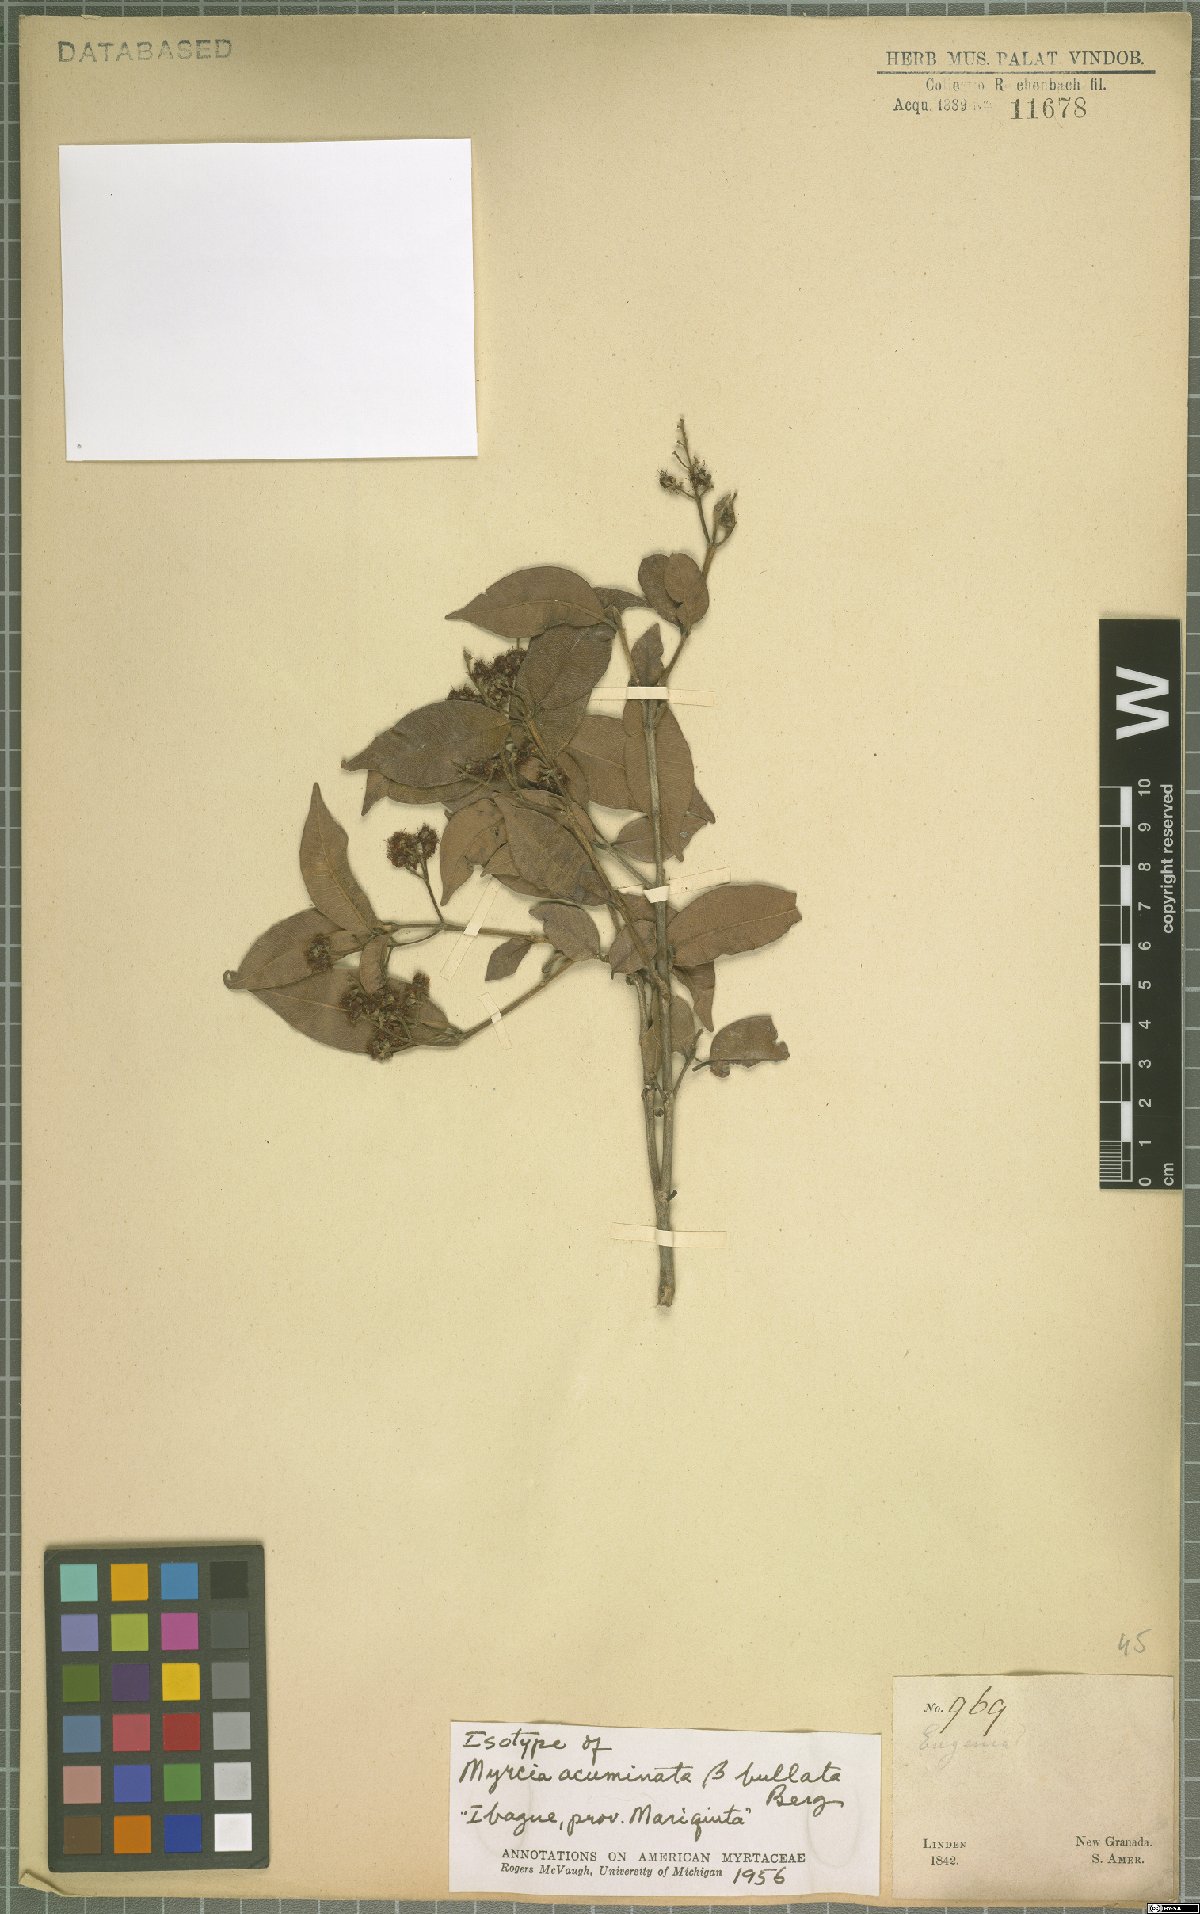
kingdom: Plantae
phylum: Tracheophyta
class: Magnoliopsida
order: Myrtales
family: Myrtaceae
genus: Myrcia
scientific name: Myrcia splendens
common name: Surinam cherry
